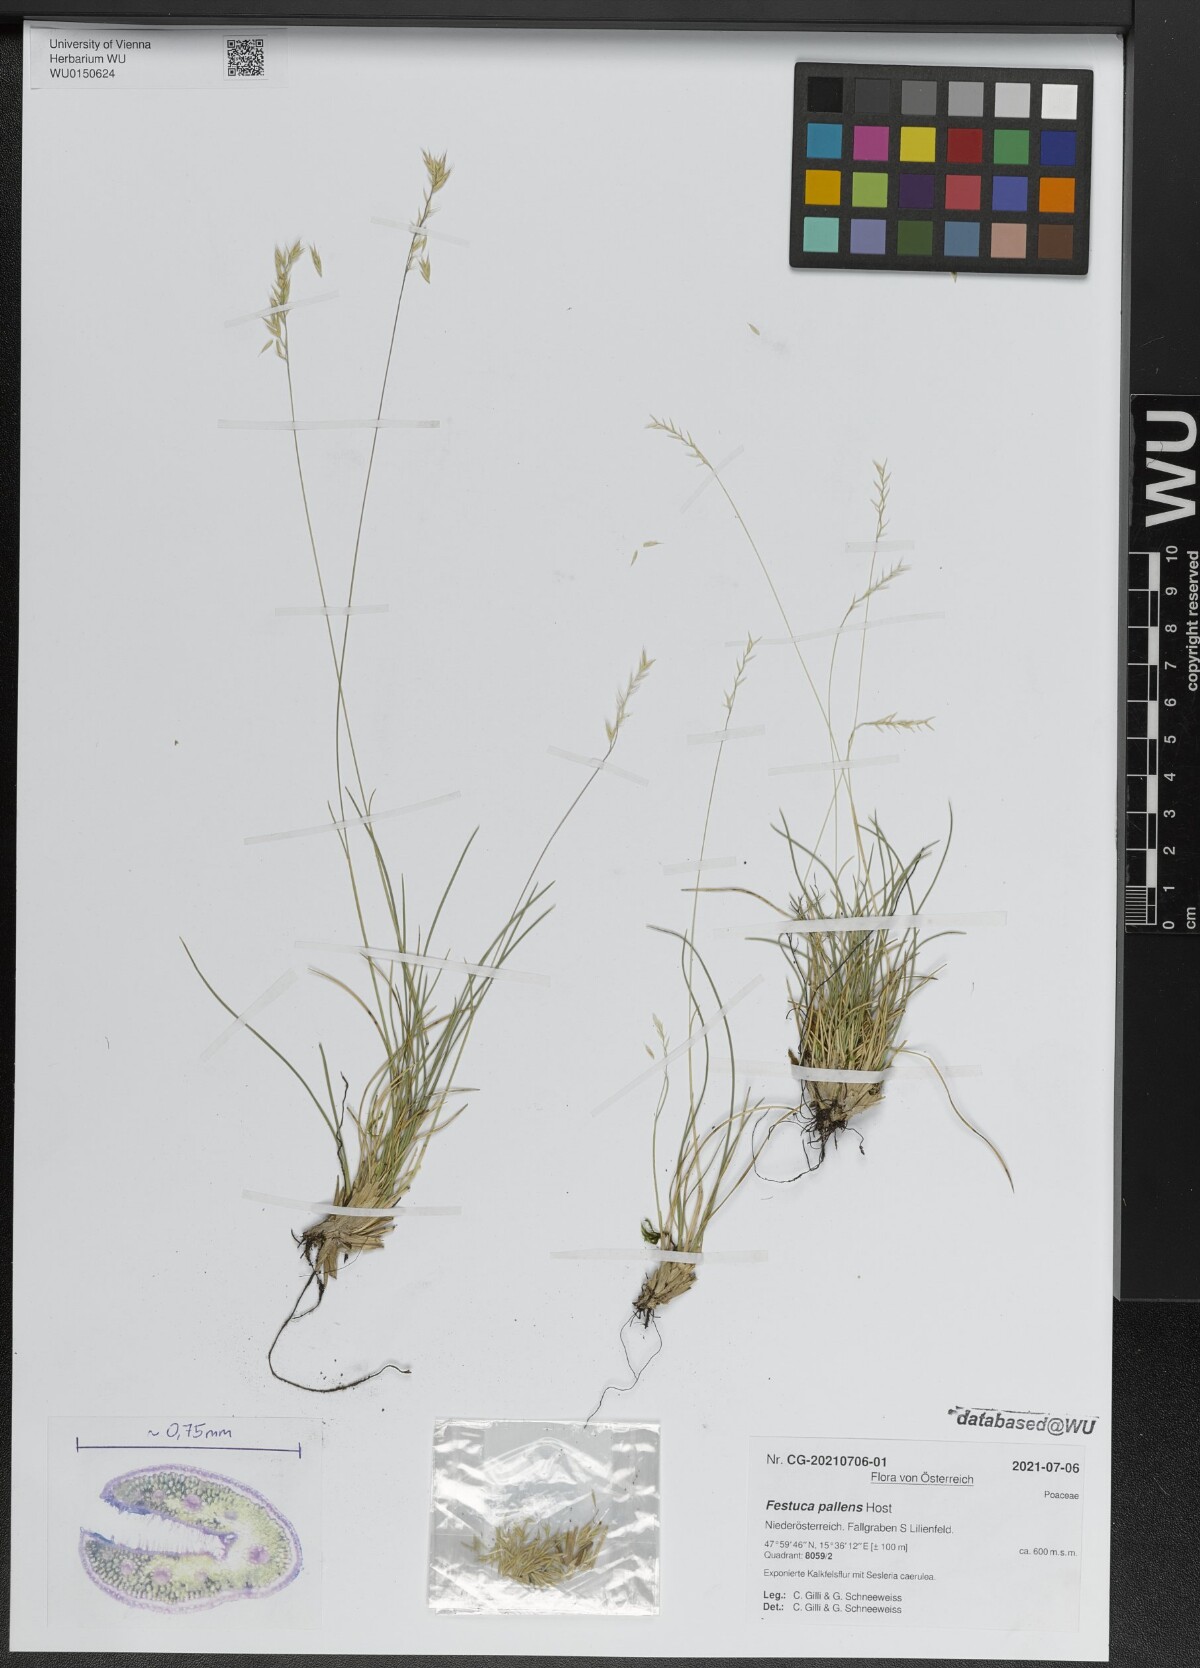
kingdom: Plantae
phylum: Tracheophyta
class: Liliopsida
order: Poales
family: Poaceae
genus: Festuca
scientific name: Festuca pallens
